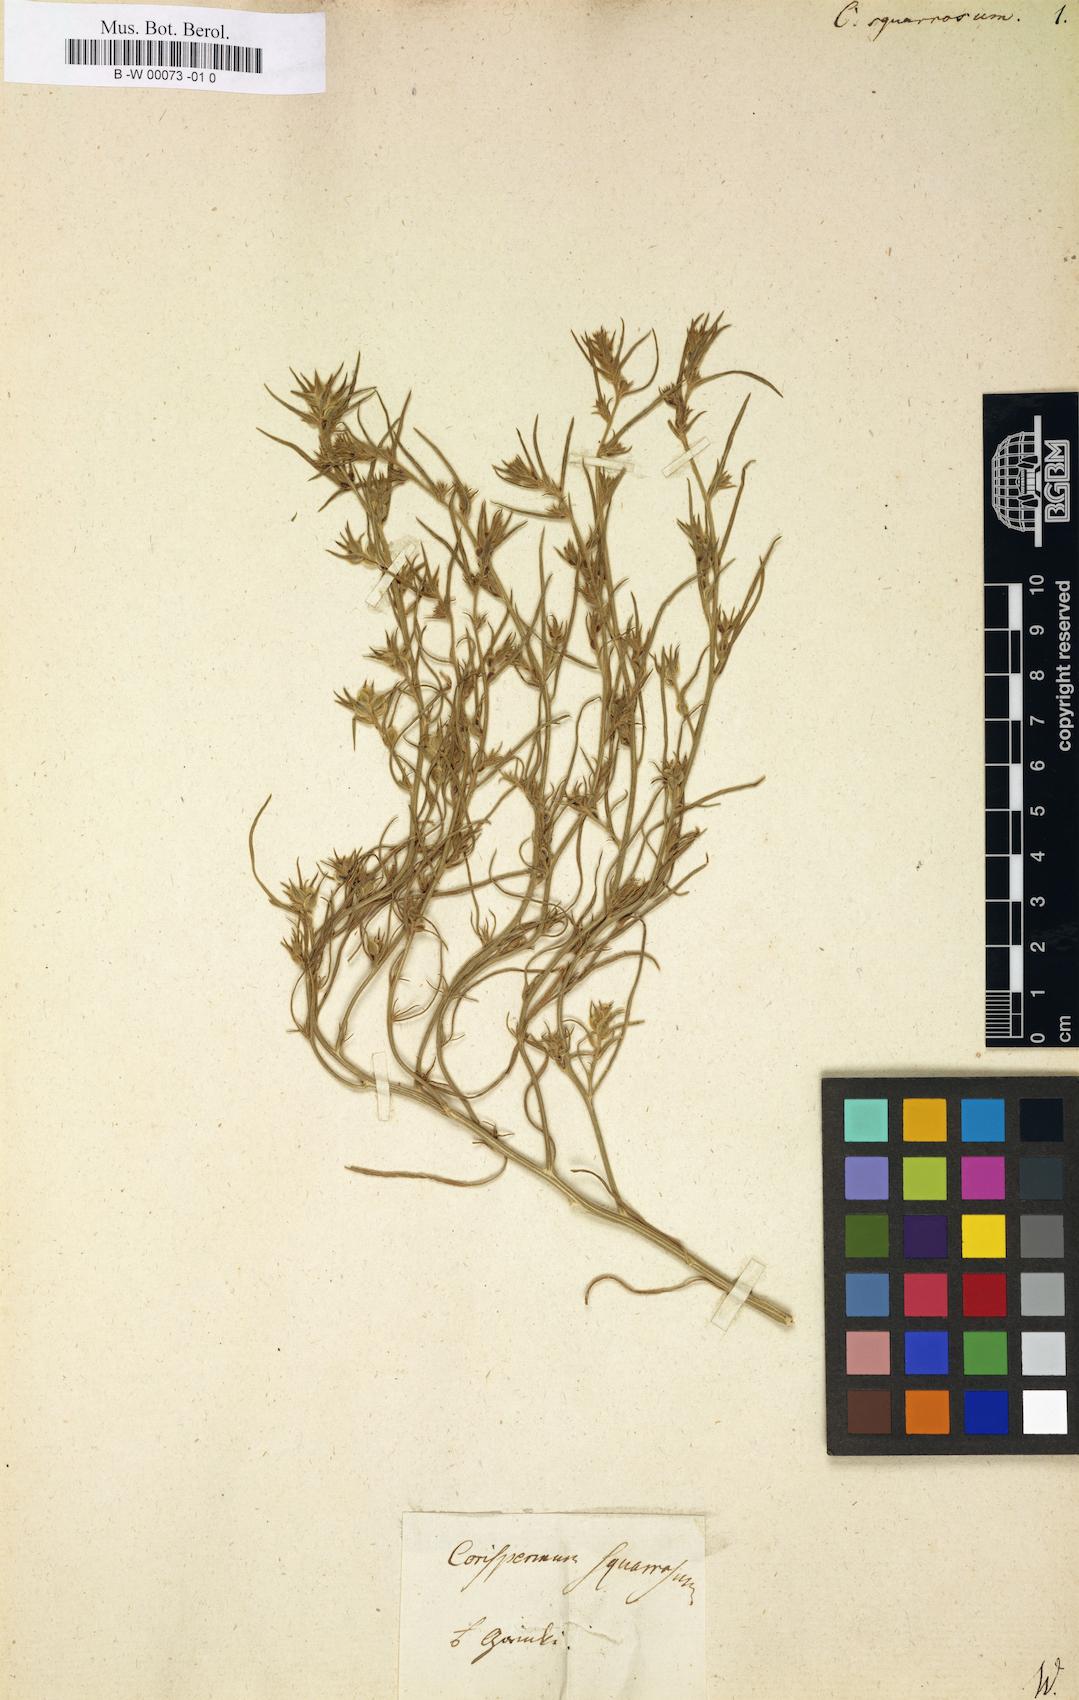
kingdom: Plantae
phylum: Tracheophyta
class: Magnoliopsida
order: Caryophyllales
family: Amaranthaceae
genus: Corispermum
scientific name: Corispermum squarrosum
